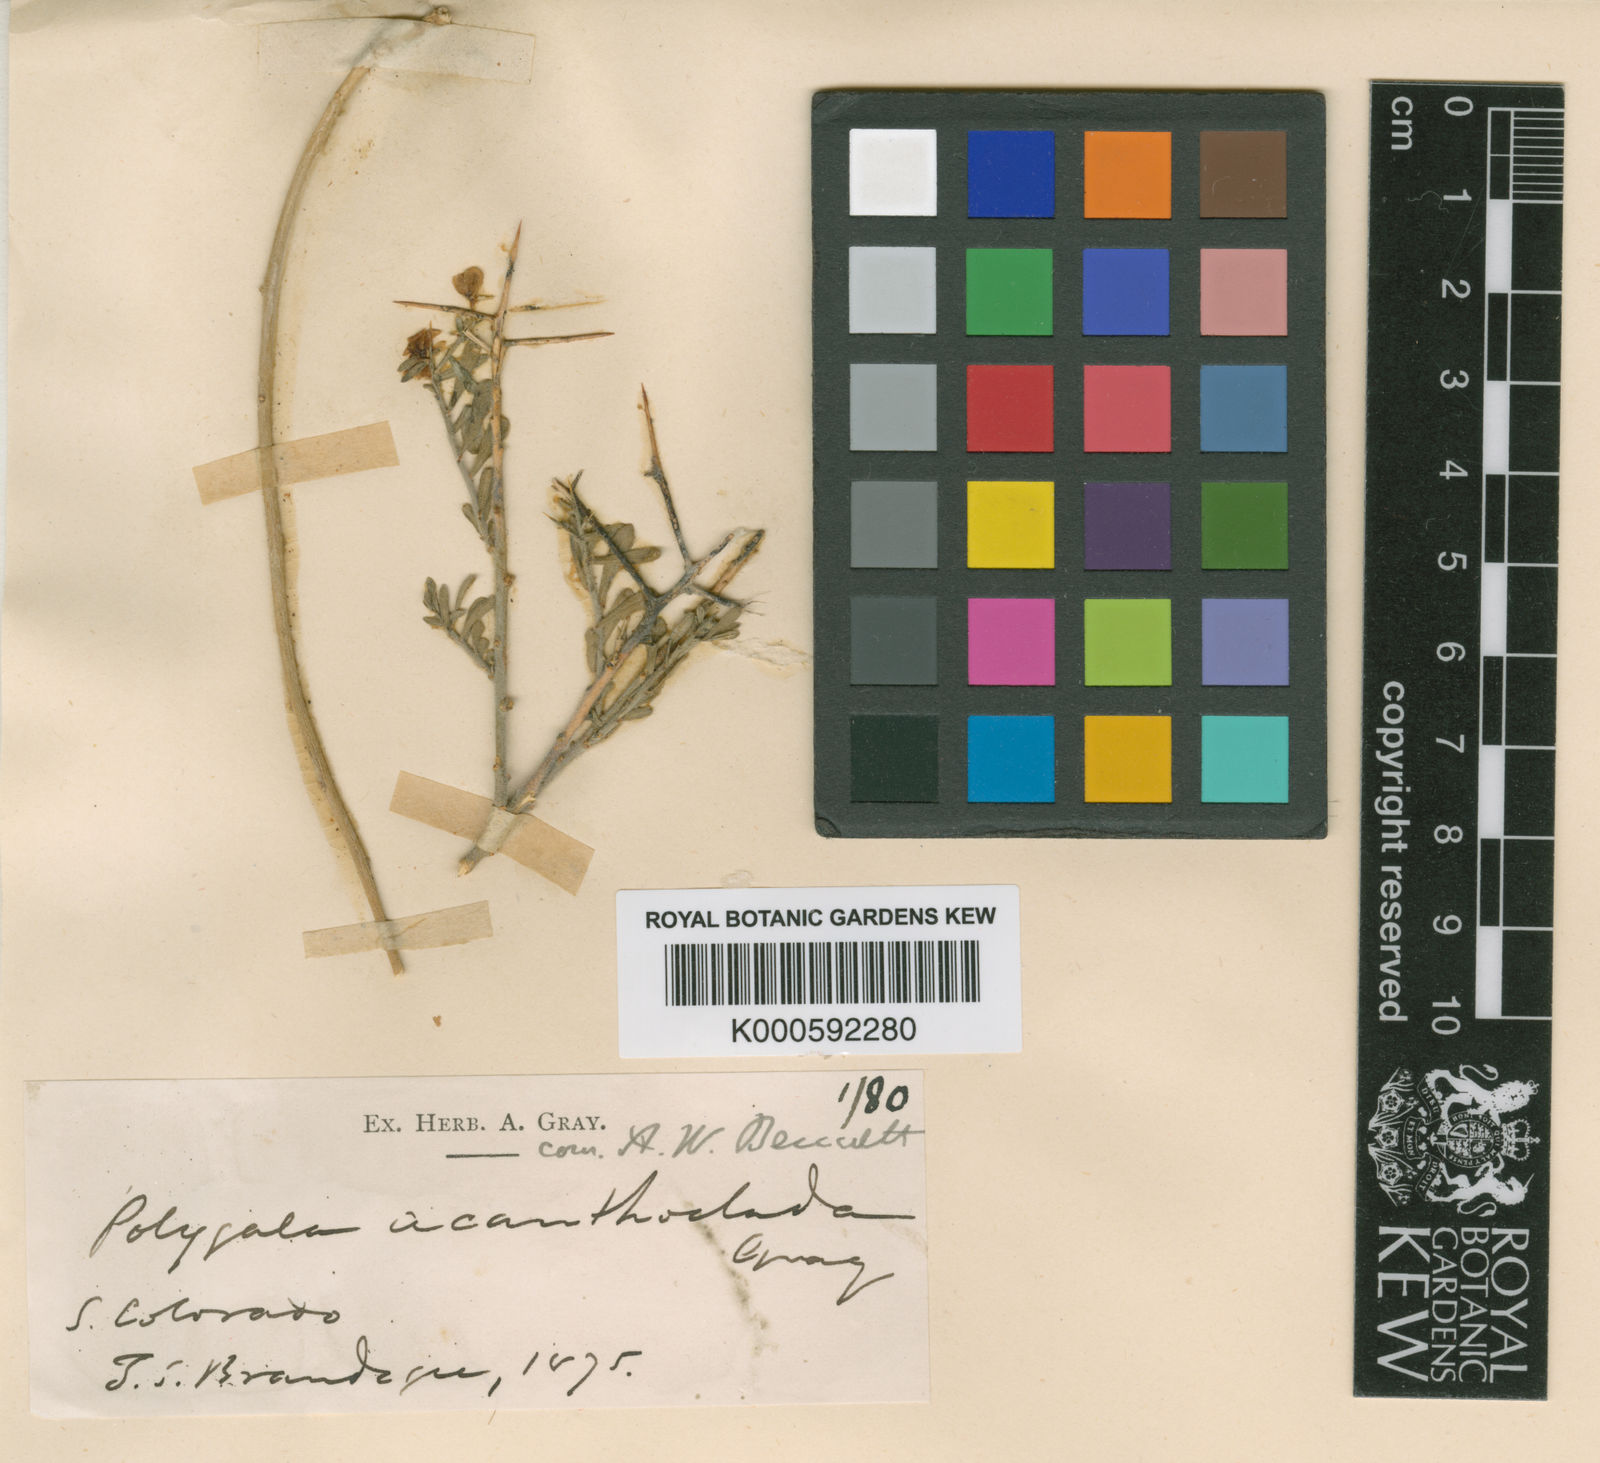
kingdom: Plantae
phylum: Tracheophyta
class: Magnoliopsida
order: Fabales
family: Polygalaceae
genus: Rhinotropis
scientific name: Rhinotropis acanthoclada
